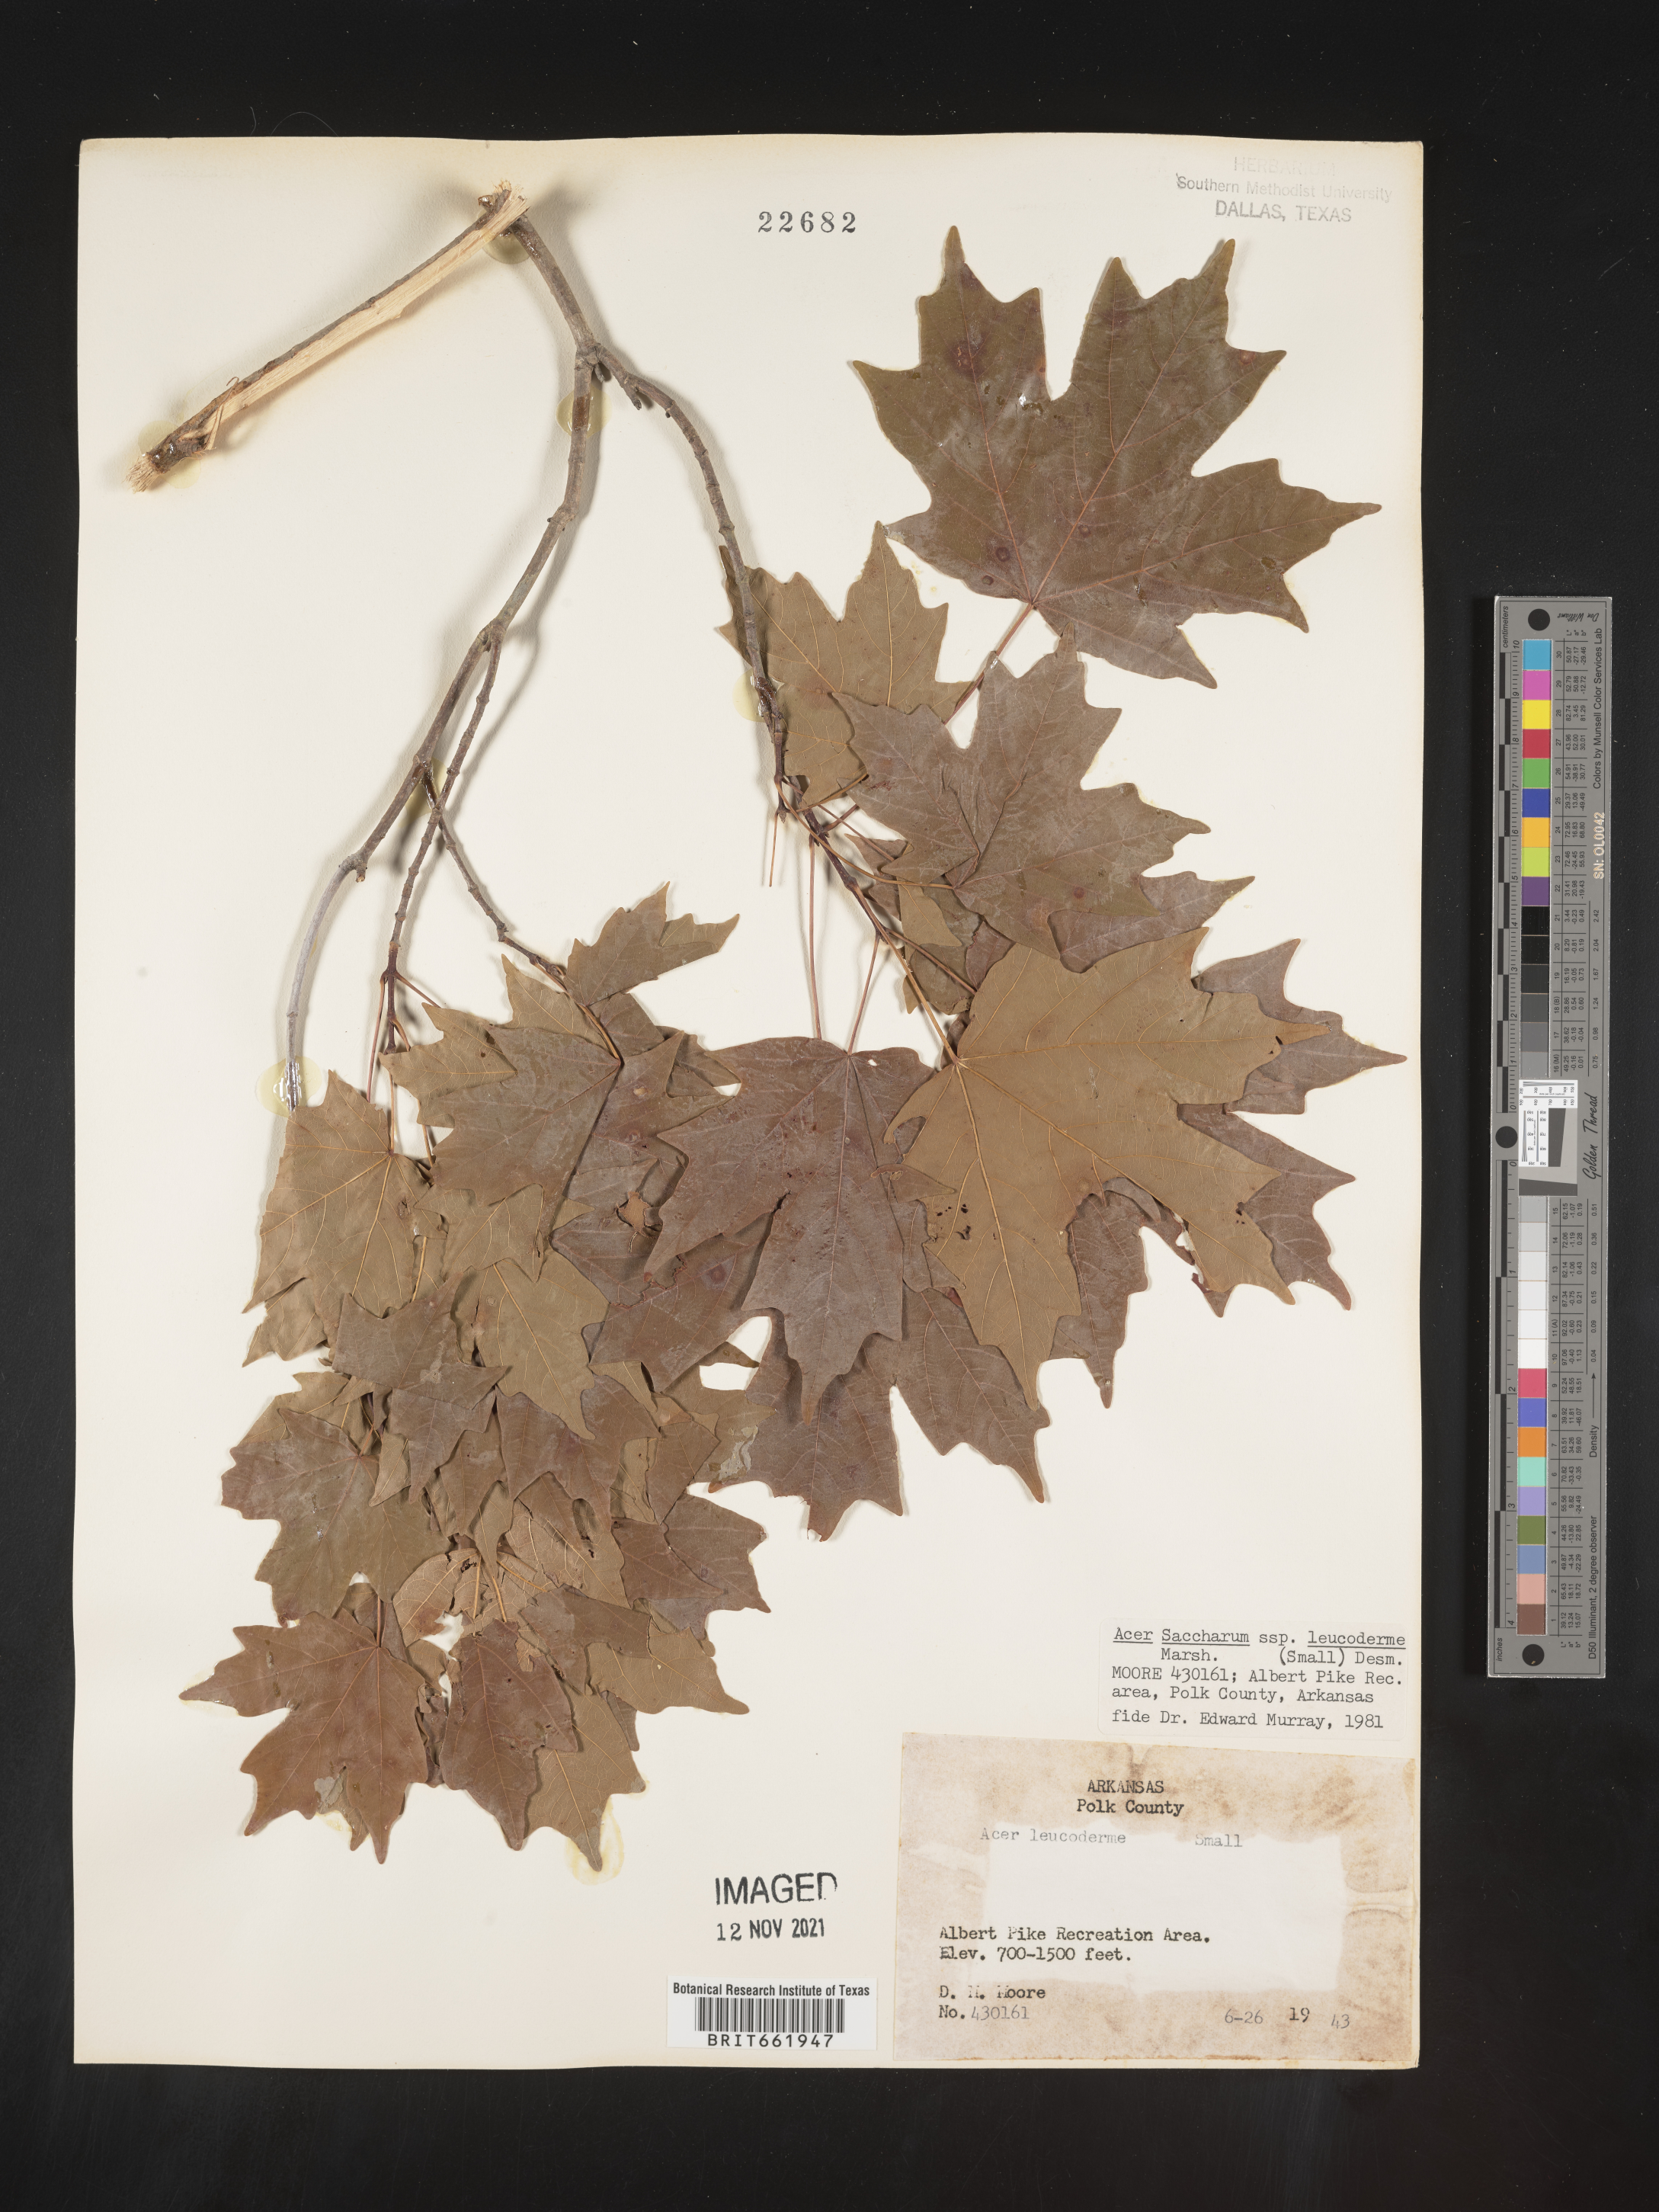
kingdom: Plantae
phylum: Tracheophyta
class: Magnoliopsida
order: Sapindales
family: Sapindaceae
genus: Acer
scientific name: Acer leucoderme
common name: Chalk maple
